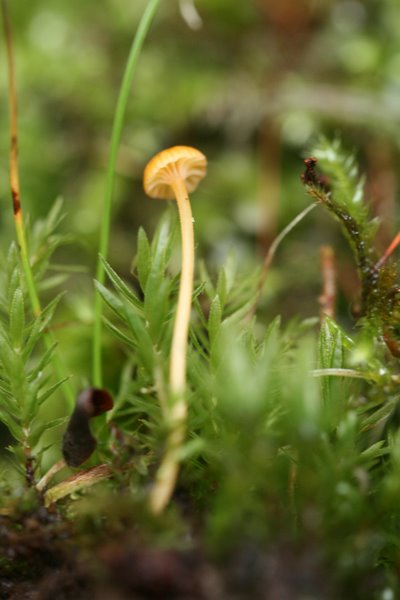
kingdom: Fungi
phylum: Basidiomycota
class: Agaricomycetes
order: Hymenochaetales
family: Rickenellaceae
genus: Rickenella
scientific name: Rickenella fibula
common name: orange mosnavlehat
